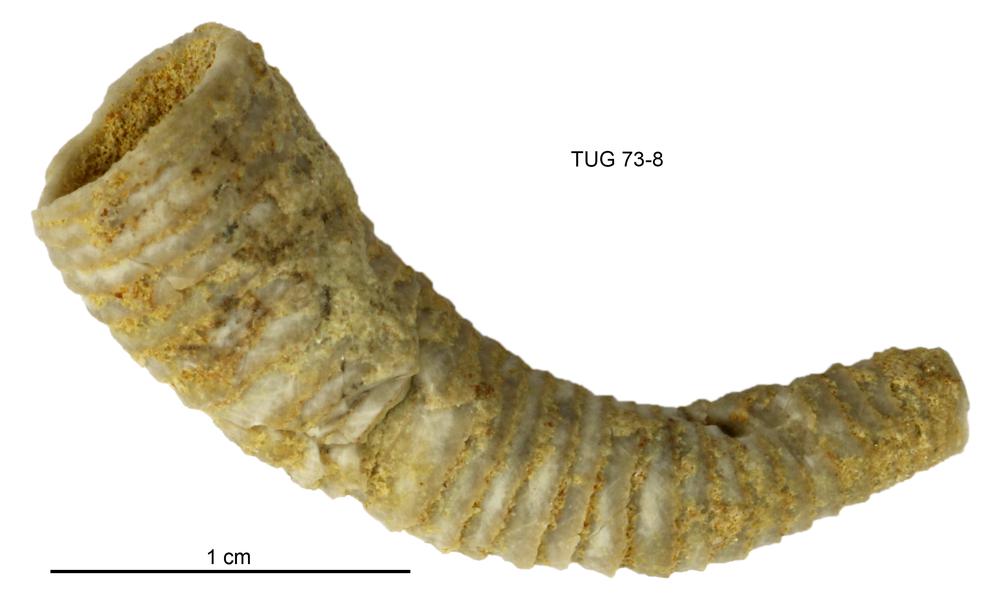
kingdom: Animalia
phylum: Echinodermata
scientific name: Echinodermata
